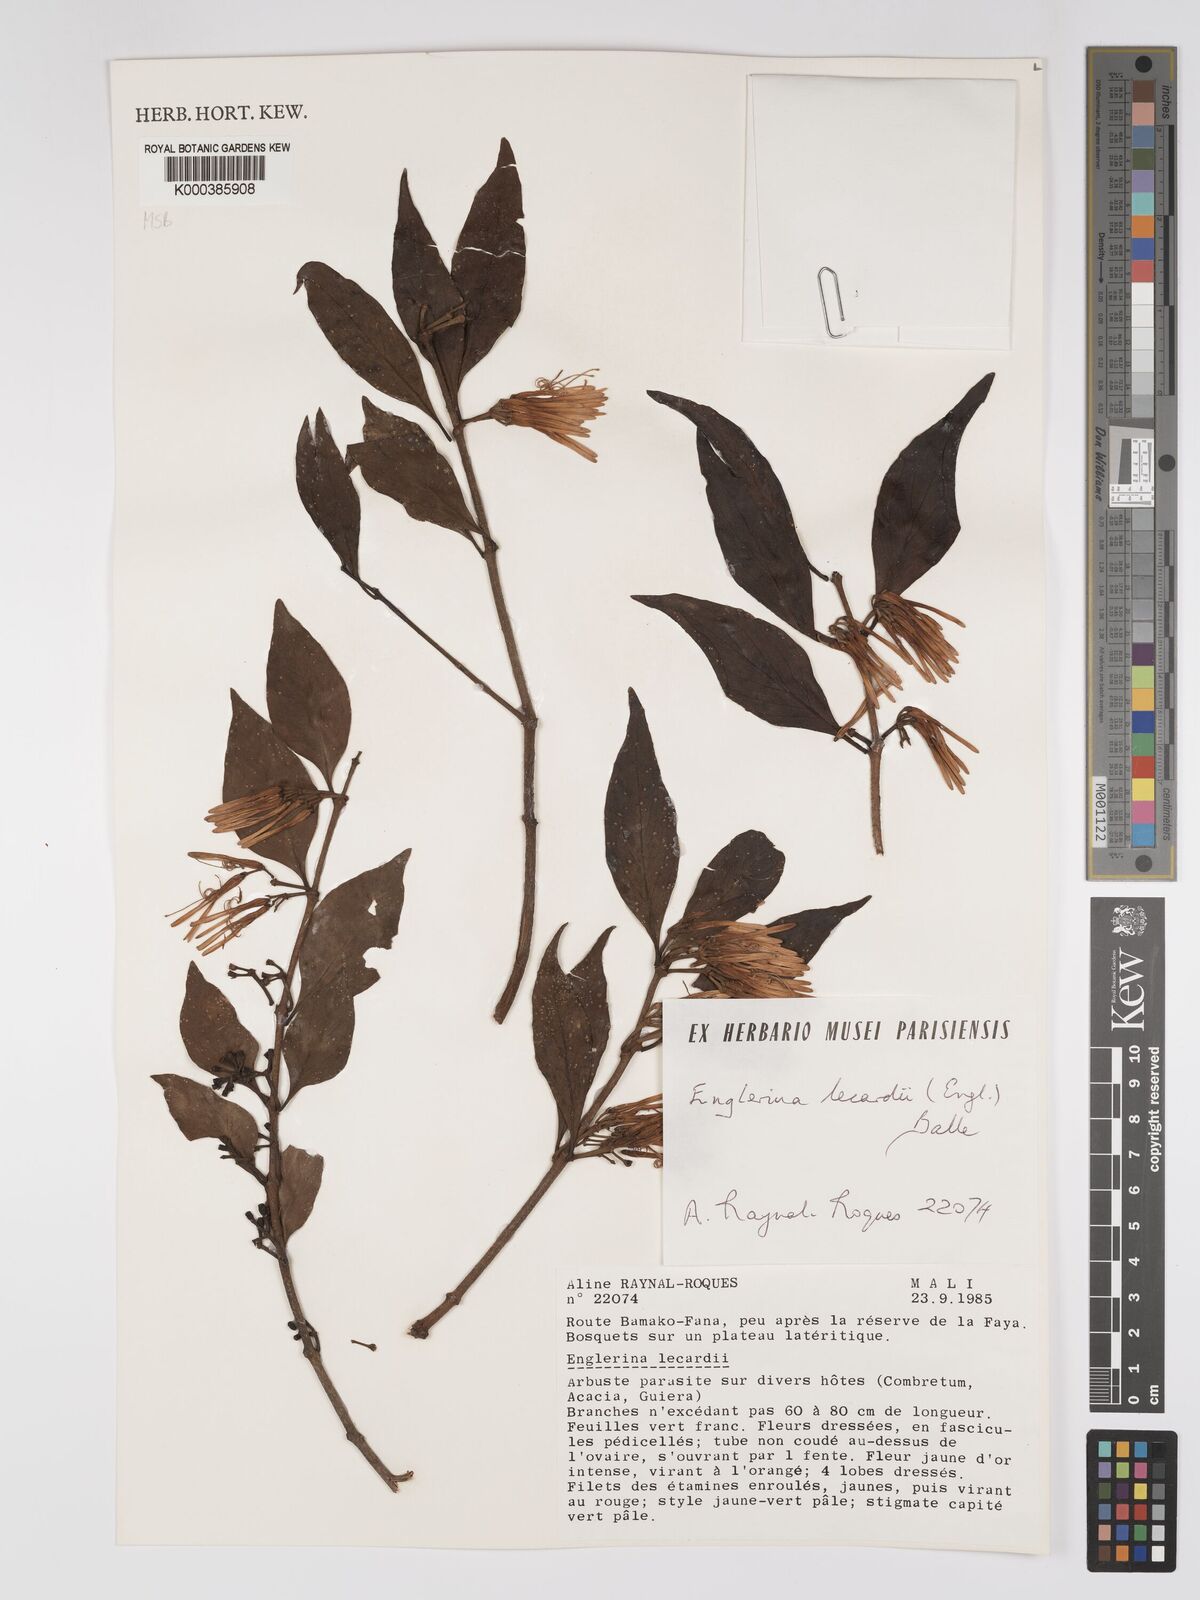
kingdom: Plantae
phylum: Tracheophyta
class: Magnoliopsida
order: Santalales
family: Loranthaceae
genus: Englerina
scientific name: Englerina lecardii
